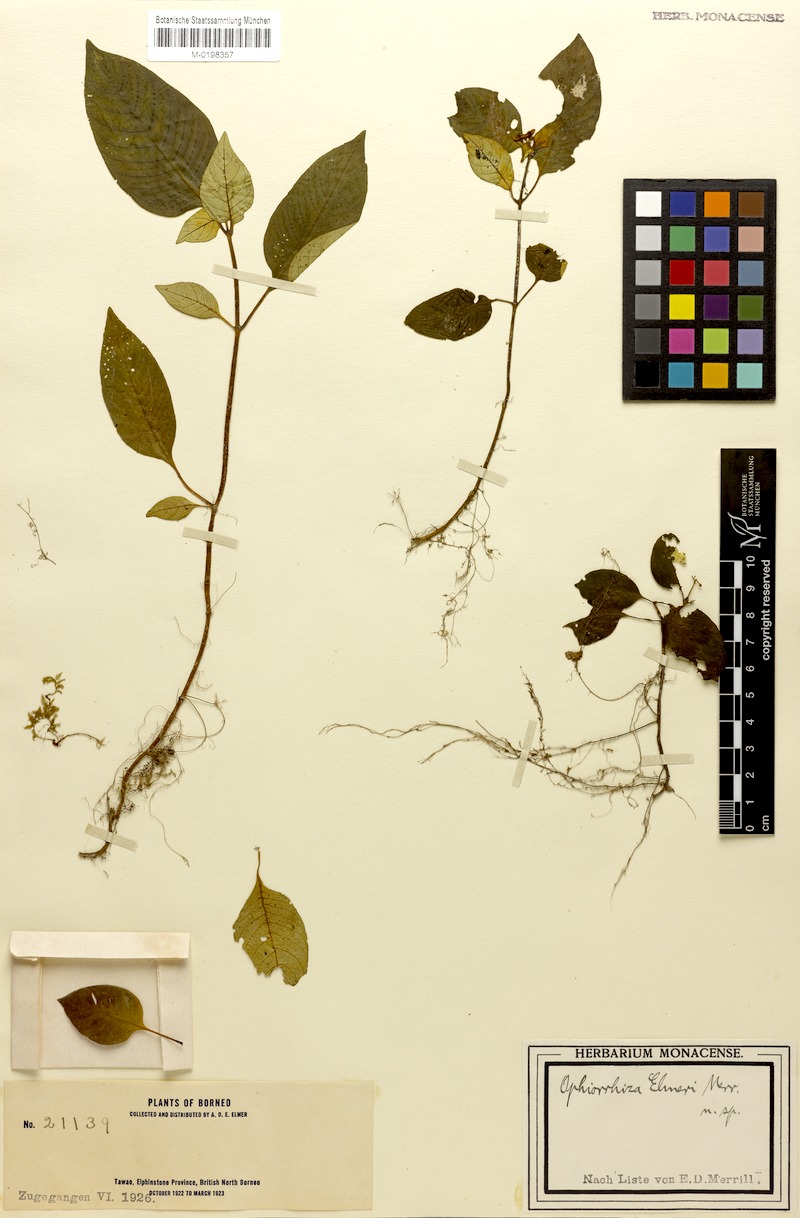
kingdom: Plantae
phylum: Tracheophyta
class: Magnoliopsida
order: Gentianales
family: Rubiaceae
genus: Ophiorrhiza
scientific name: Ophiorrhiza elmeri
